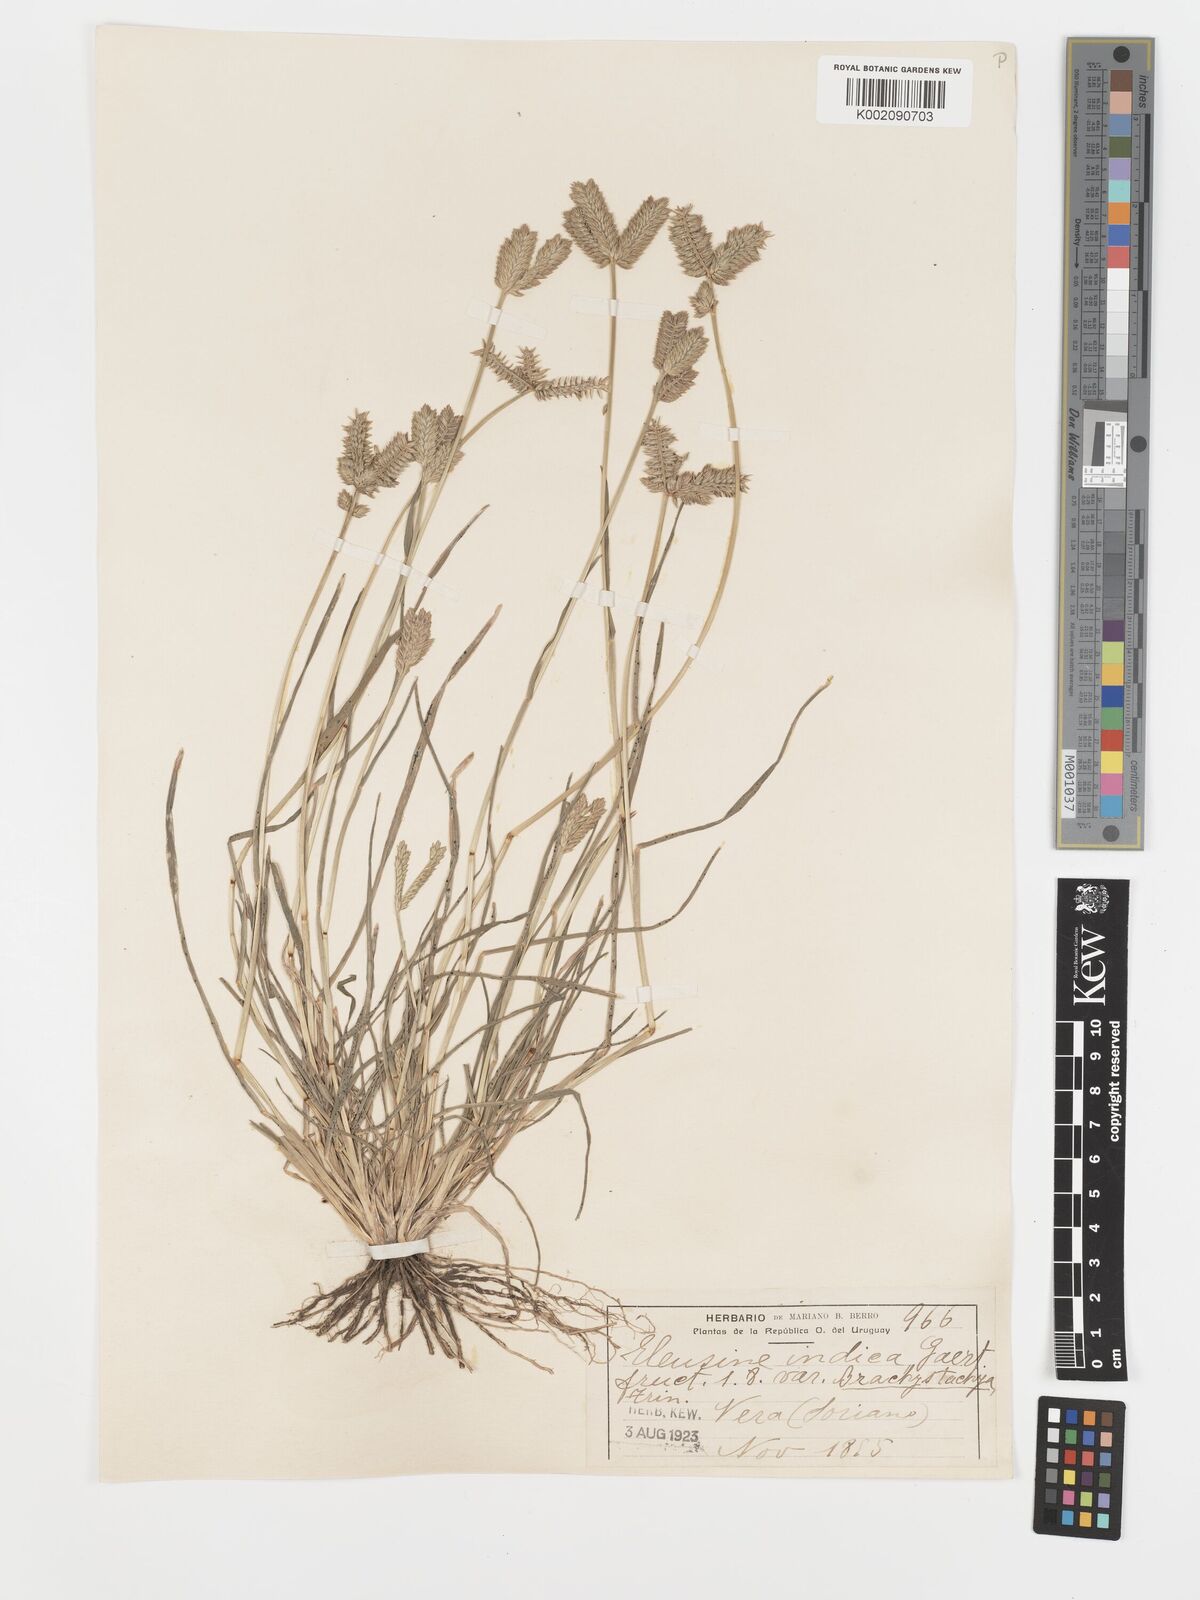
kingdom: Plantae
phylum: Tracheophyta
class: Liliopsida
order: Poales
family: Poaceae
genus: Eleusine
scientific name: Eleusine tristachya
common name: American yard-grass
